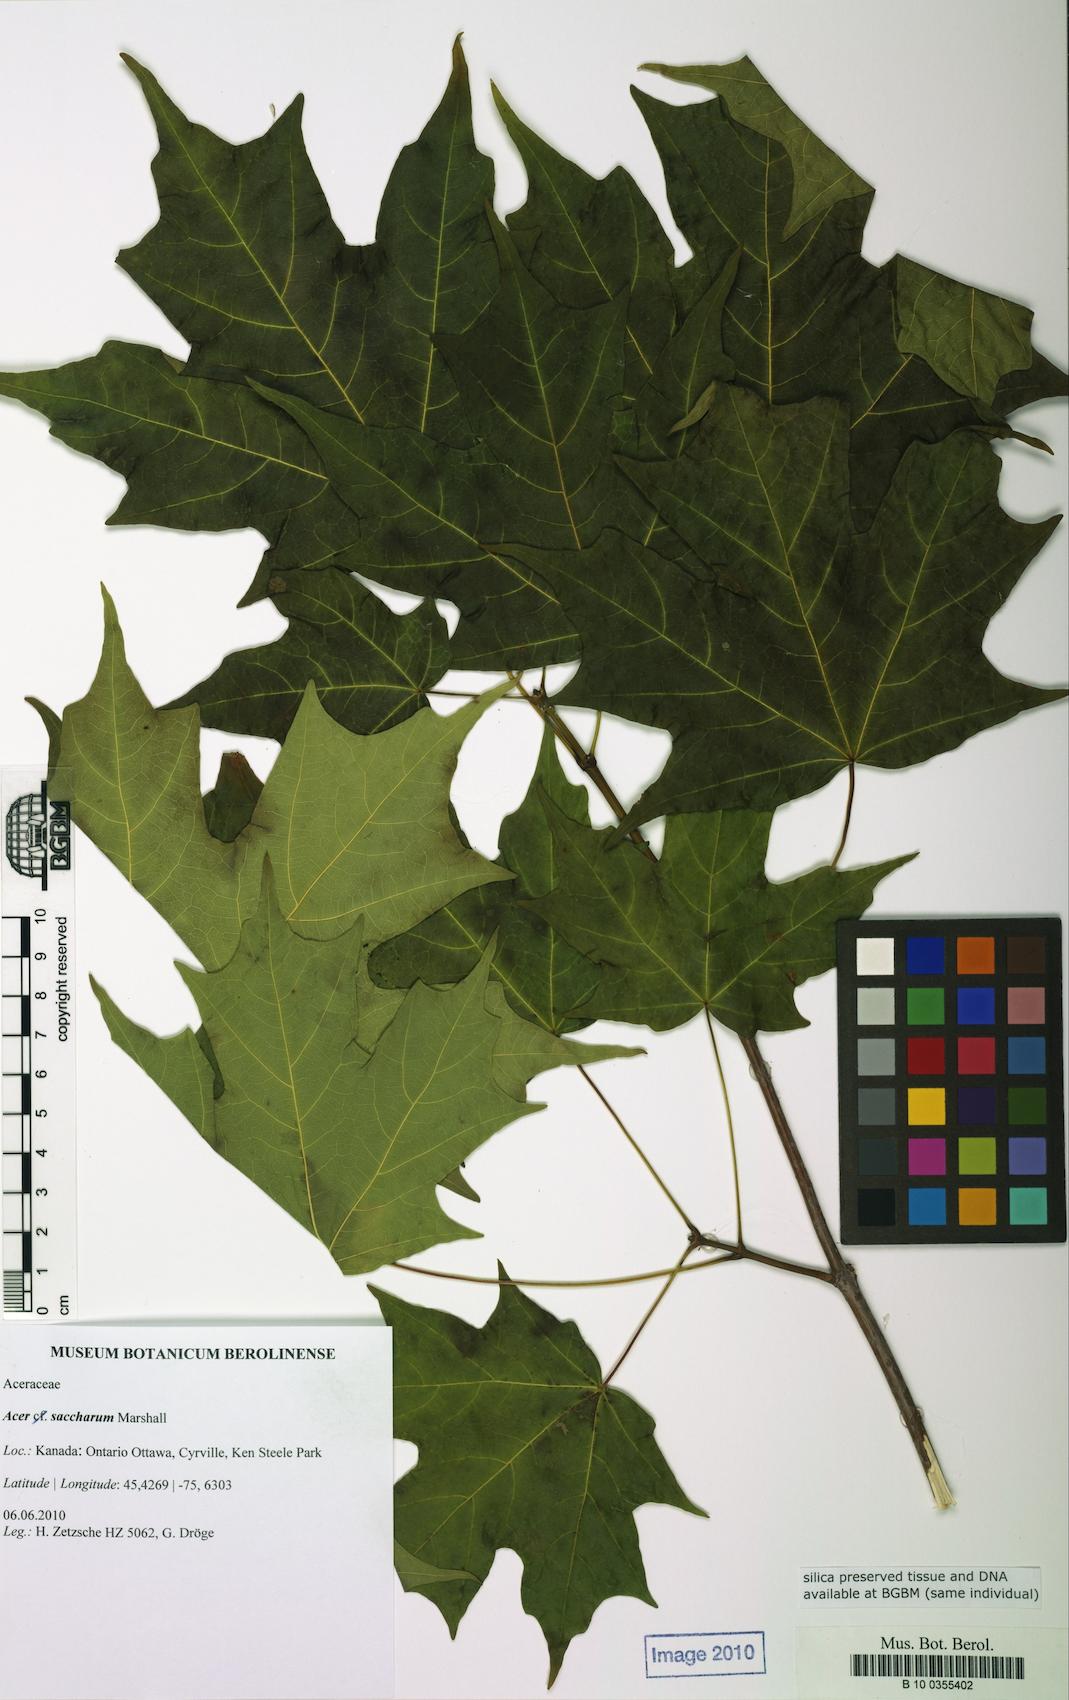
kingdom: Plantae
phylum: Tracheophyta
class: Magnoliopsida
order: Sapindales
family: Sapindaceae
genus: Acer
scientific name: Acer saccharum
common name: Sugar maple
